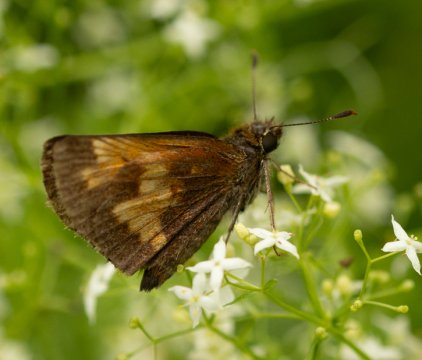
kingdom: Animalia
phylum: Arthropoda
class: Insecta
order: Lepidoptera
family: Hesperiidae
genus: Lon
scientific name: Lon hobomok
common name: Hobomok Skipper
